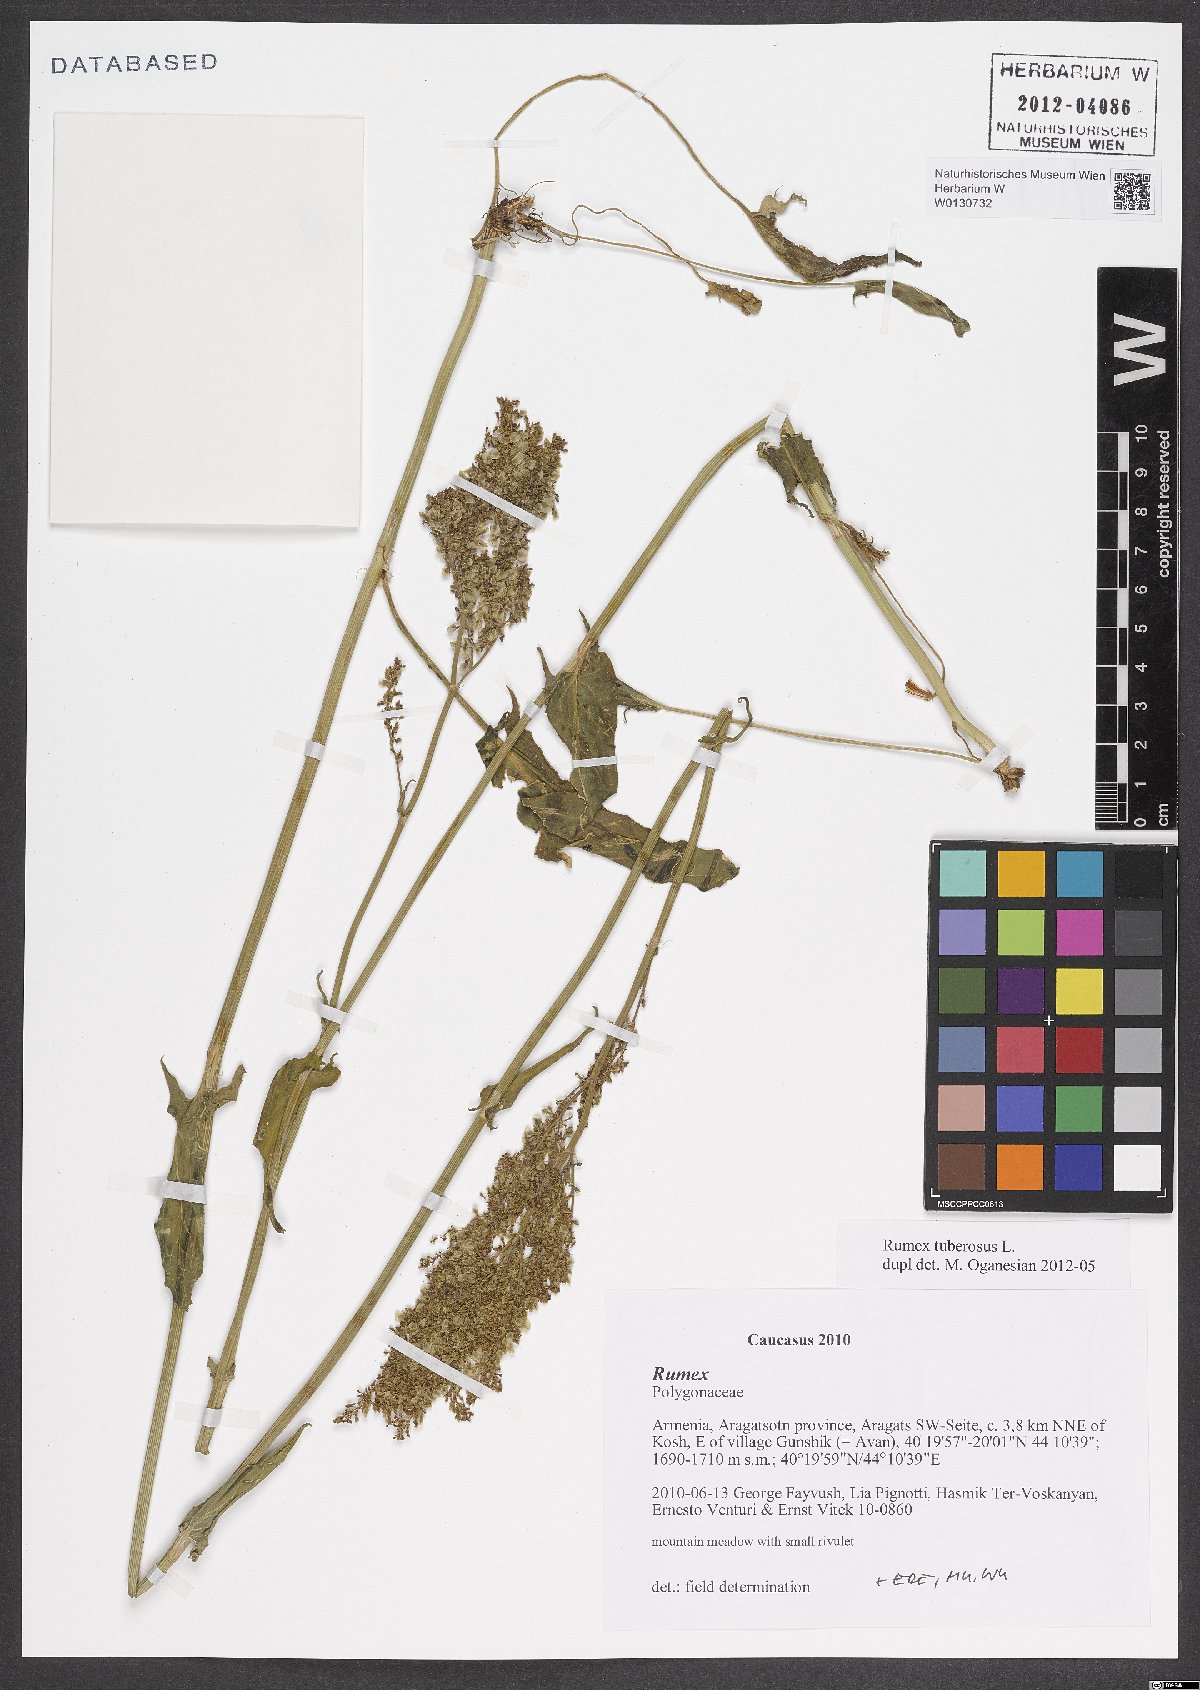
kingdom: Plantae
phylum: Tracheophyta
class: Magnoliopsida
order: Caryophyllales
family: Polygonaceae
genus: Rumex
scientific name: Rumex tuberosus
